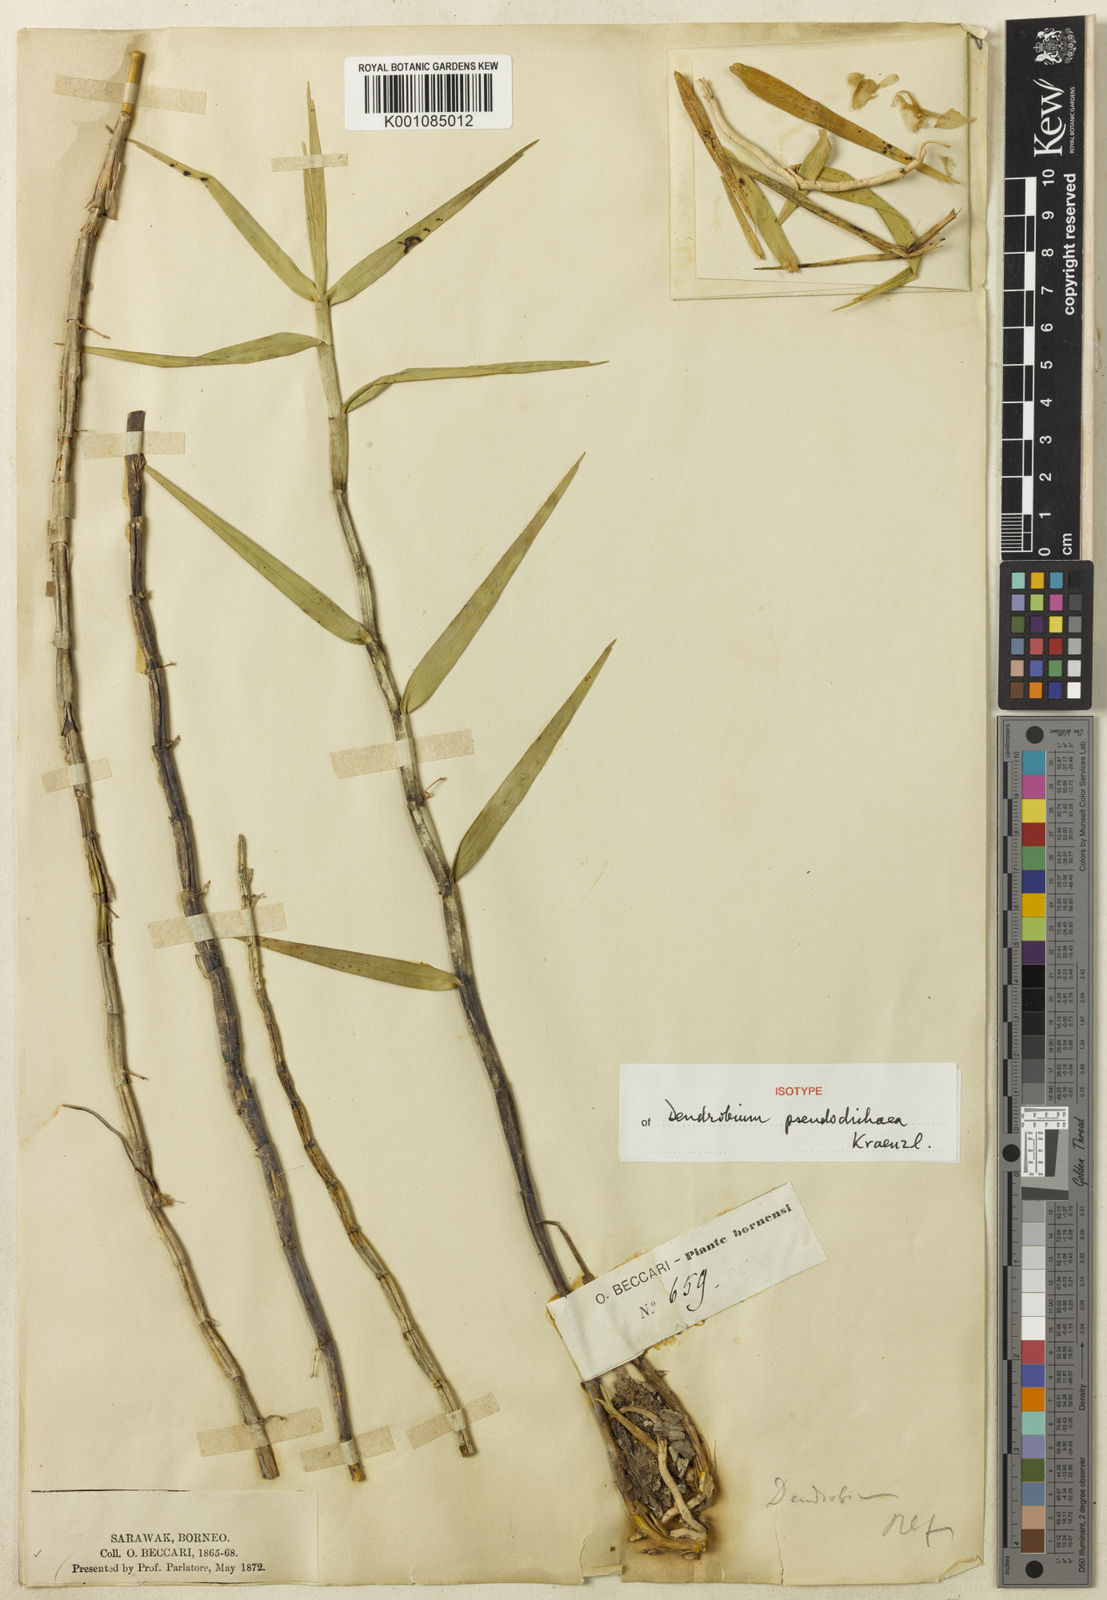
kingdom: Plantae
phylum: Tracheophyta
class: Liliopsida
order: Asparagales
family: Orchidaceae
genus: Dendrobium
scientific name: Dendrobium hosei
